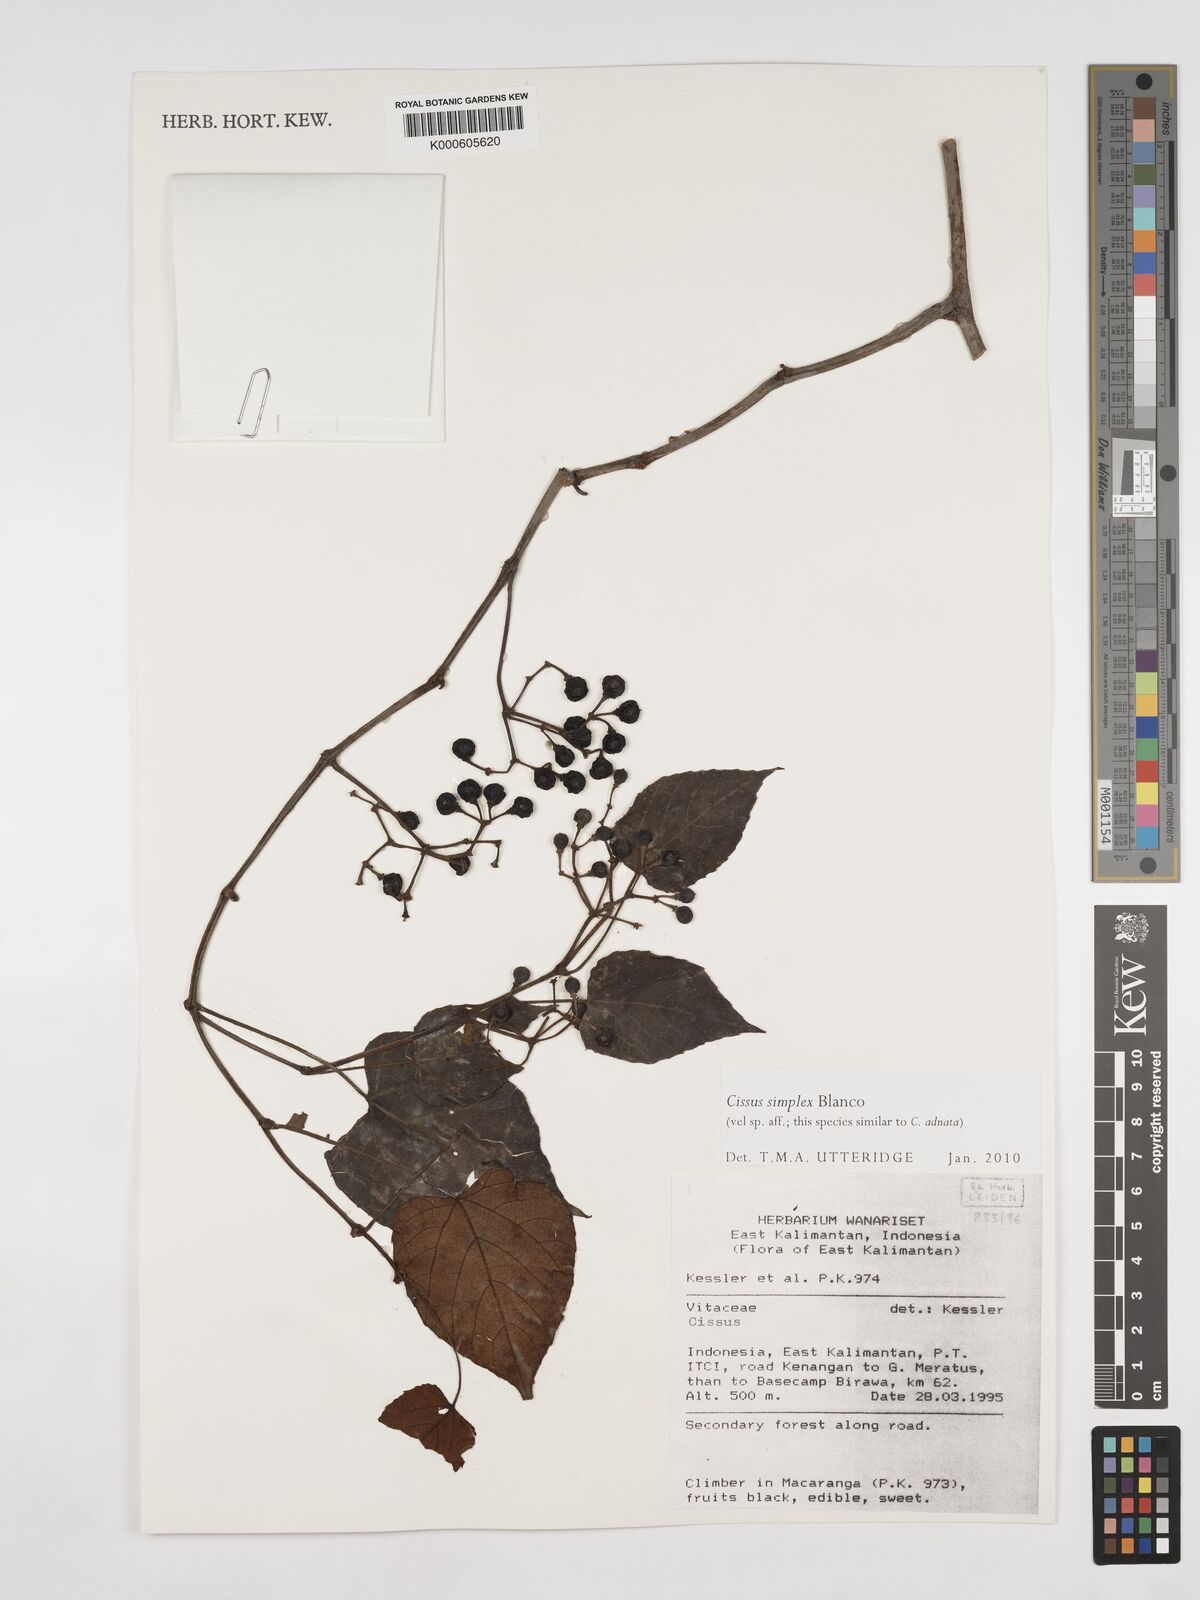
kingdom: Plantae
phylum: Tracheophyta
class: Magnoliopsida
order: Vitales
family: Vitaceae
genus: Cissus
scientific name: Cissus aristata
